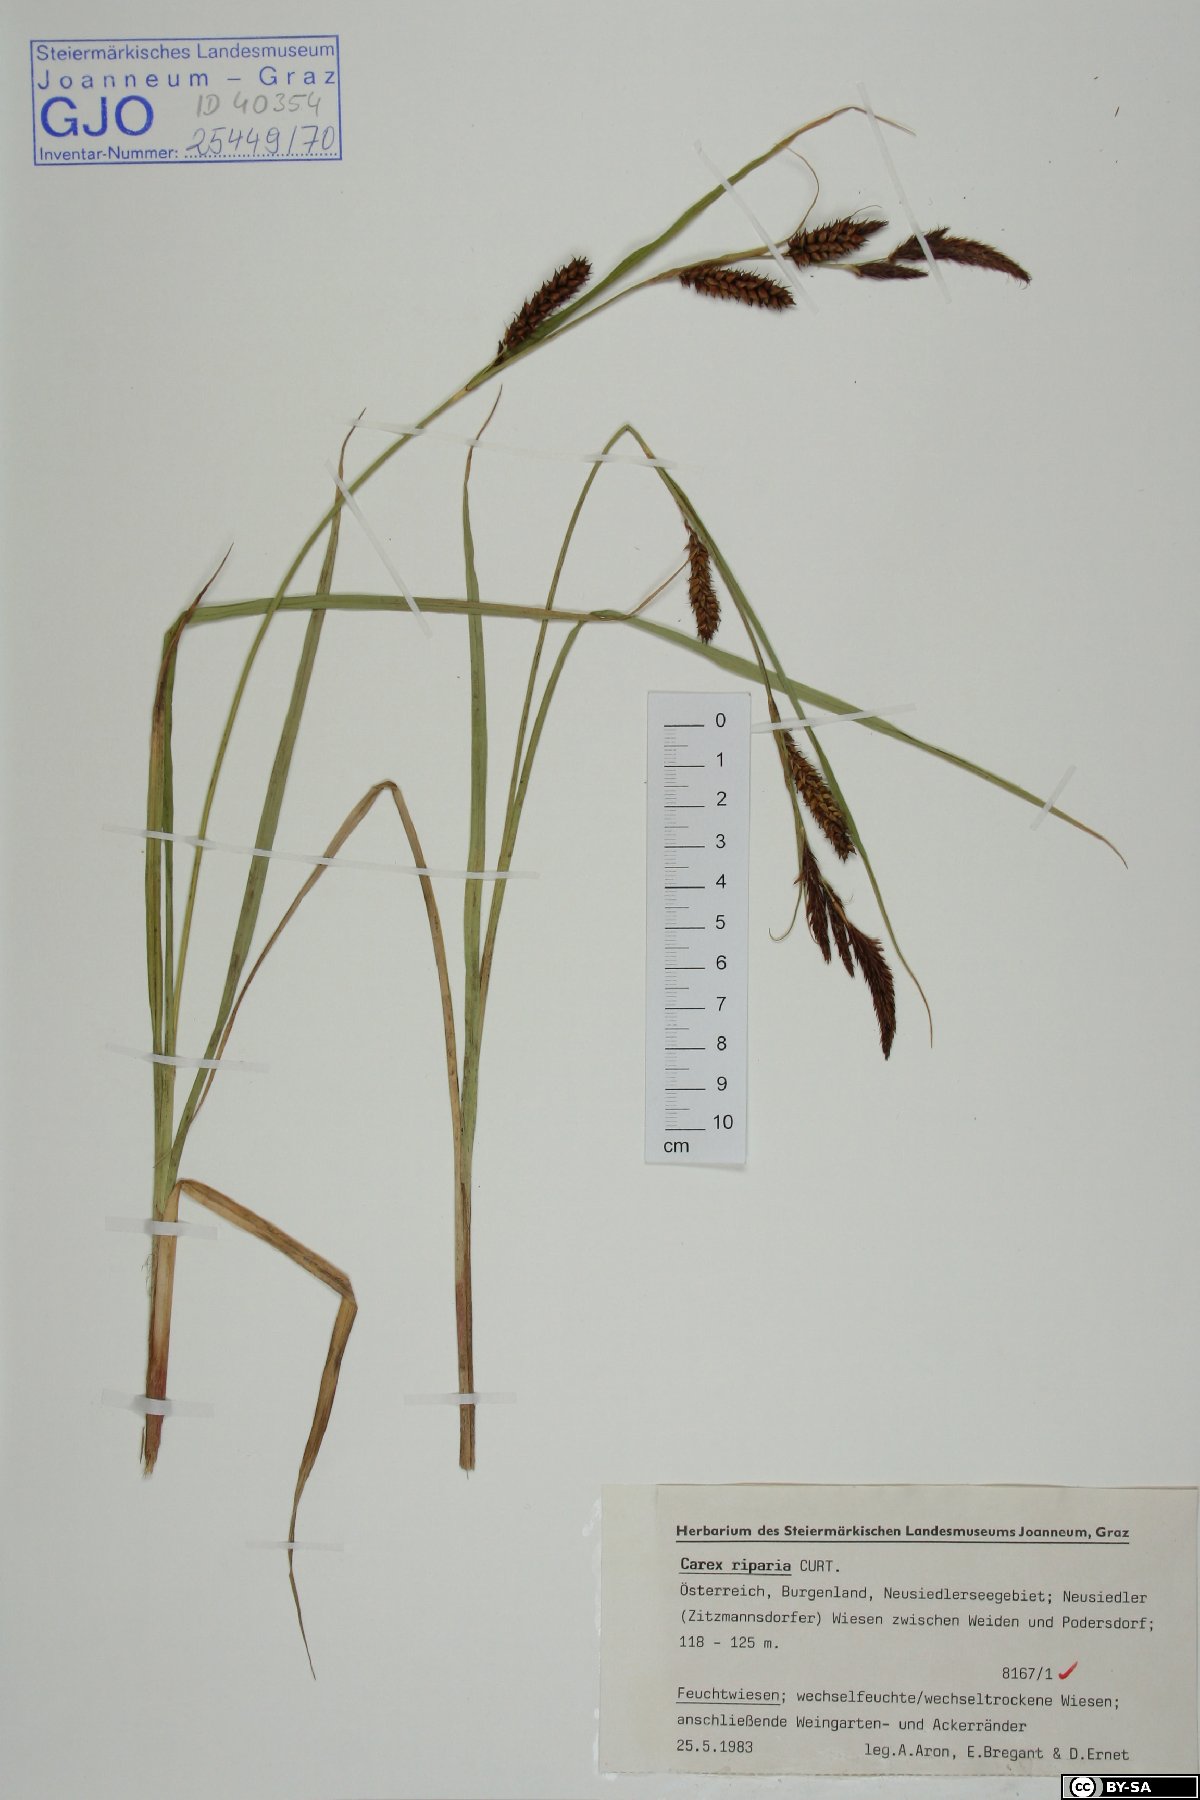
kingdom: Plantae
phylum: Tracheophyta
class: Liliopsida
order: Poales
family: Cyperaceae
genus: Carex
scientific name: Carex riparia
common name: Greater pond-sedge
